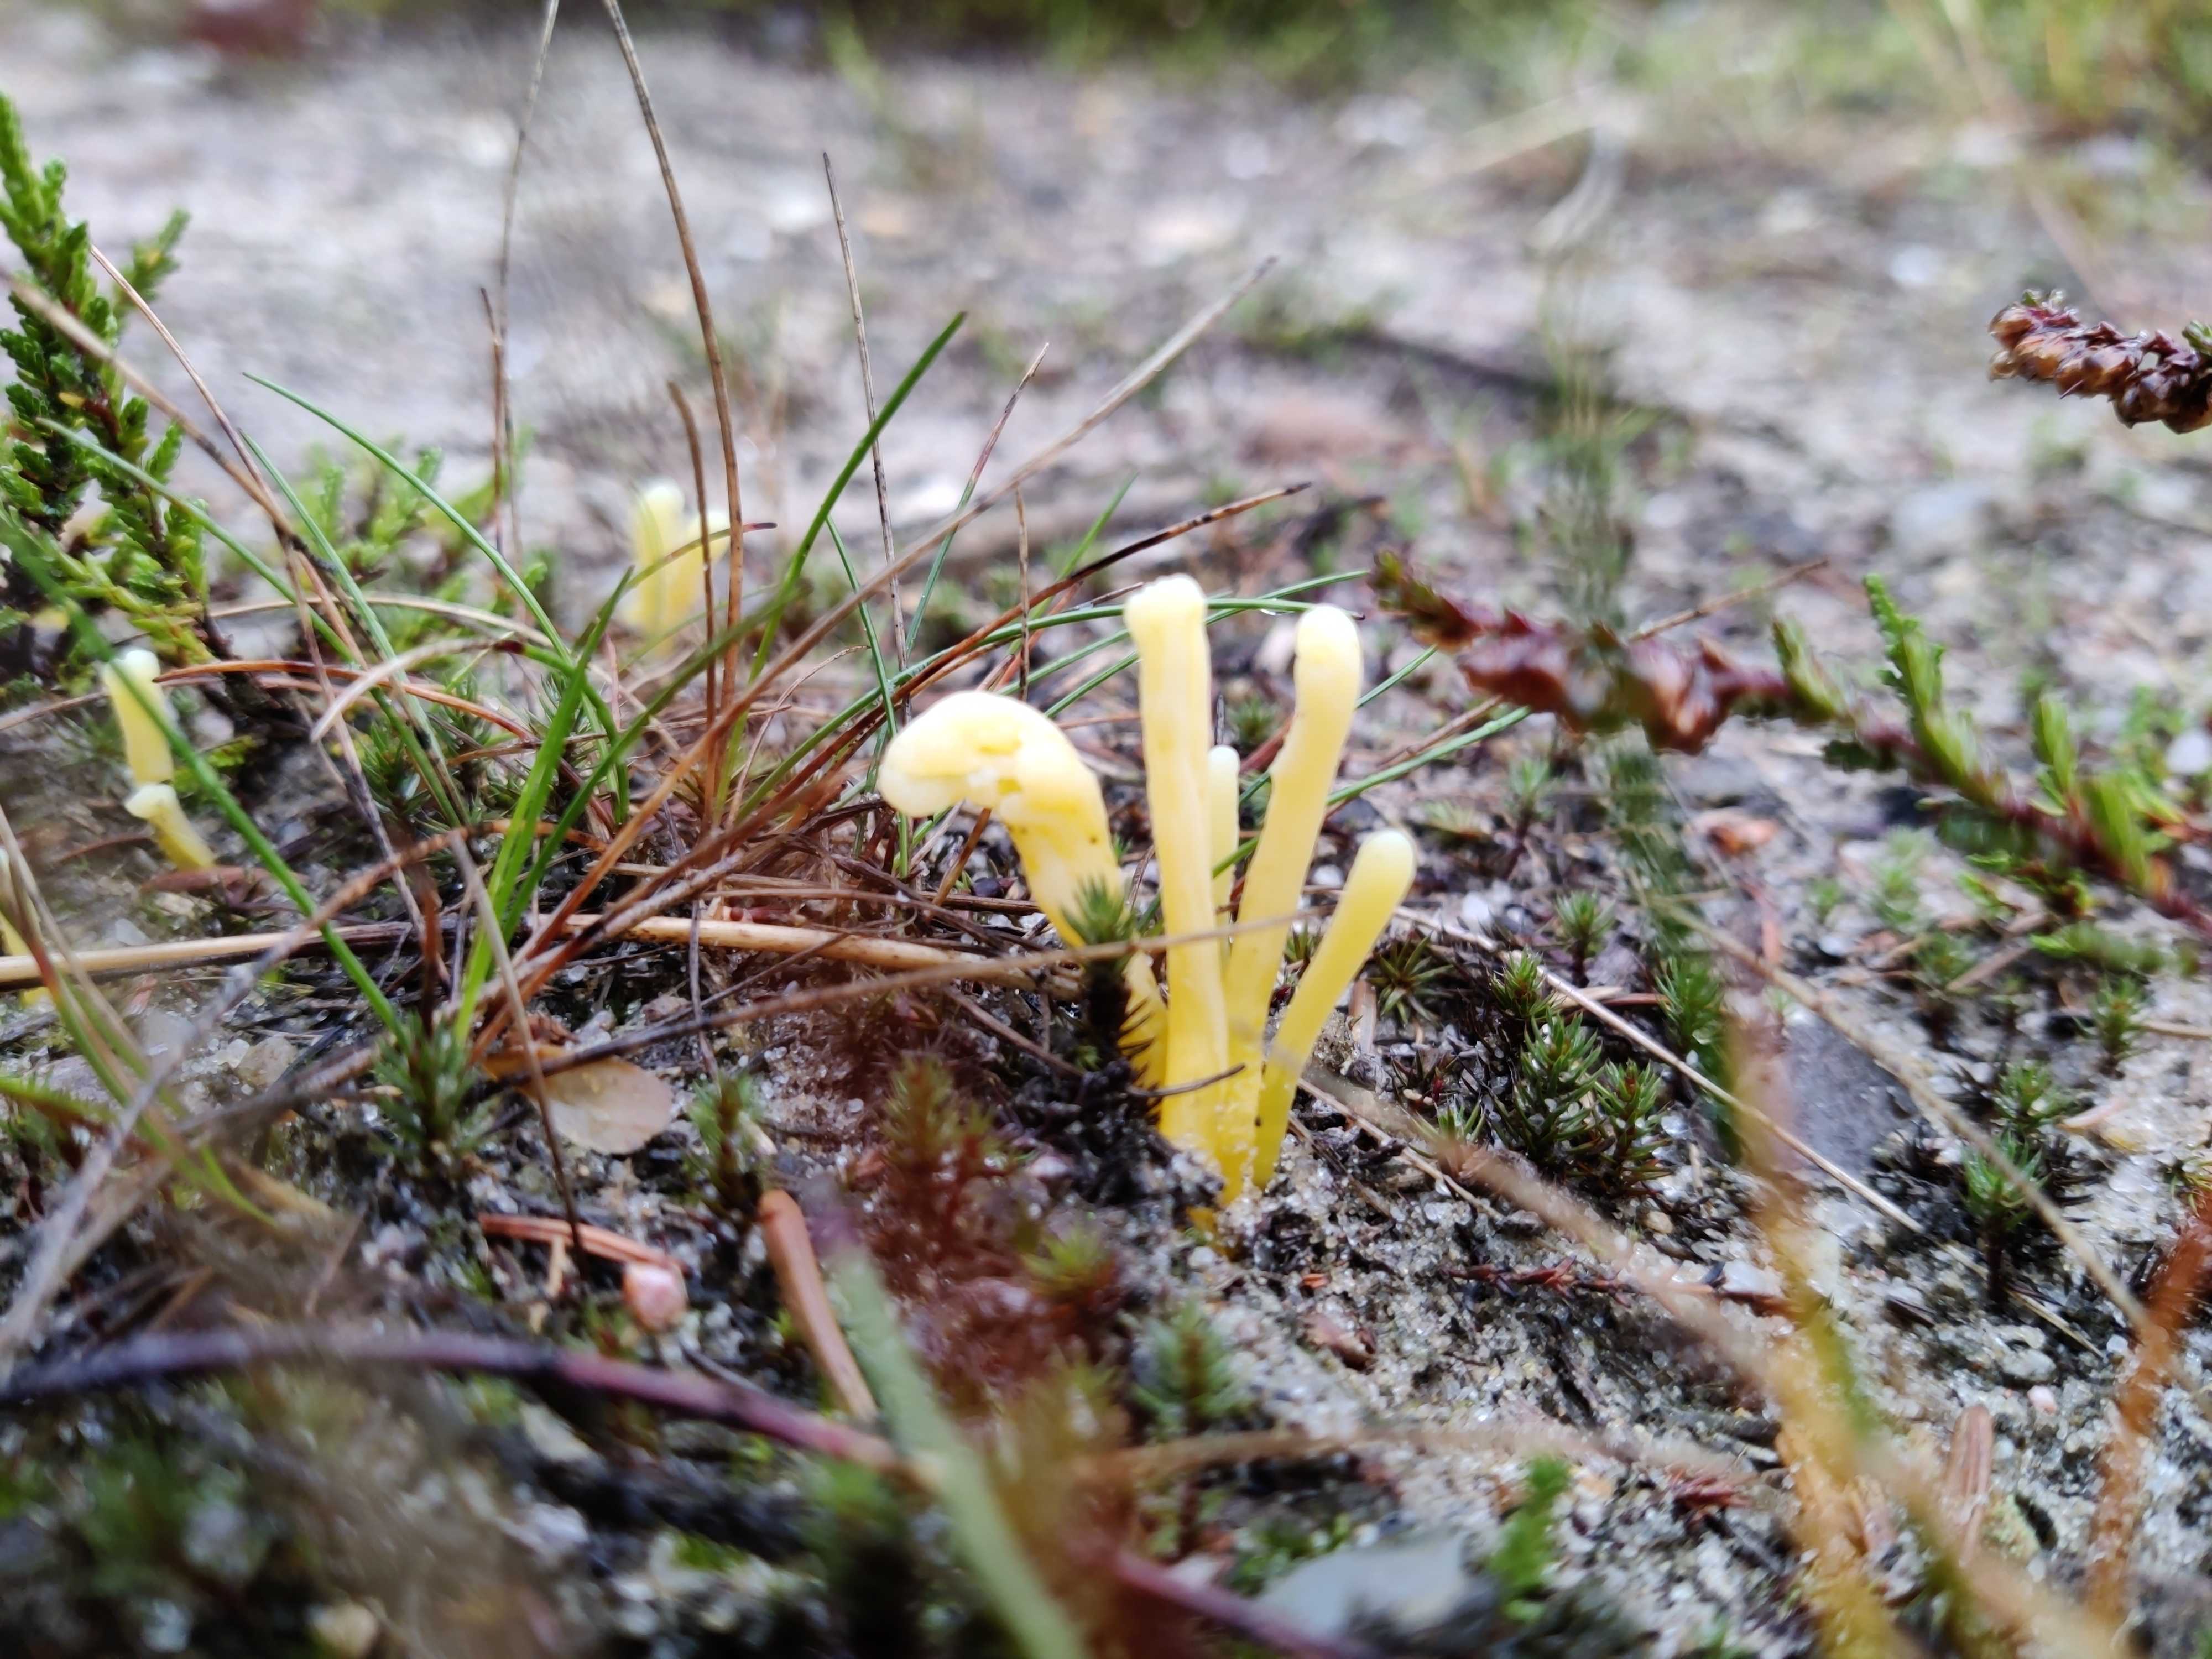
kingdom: Fungi
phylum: Basidiomycota
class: Agaricomycetes
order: Agaricales
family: Clavariaceae
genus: Clavaria
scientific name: Clavaria argillacea
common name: lerfarvet køllesvamp
